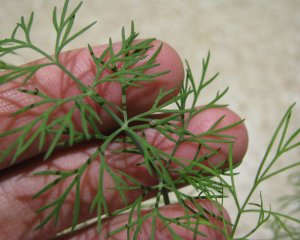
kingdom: Animalia
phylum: Arthropoda
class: Insecta
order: Lepidoptera
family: Papilionidae
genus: Papilio
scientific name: Papilio polyxenes
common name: Black Swallowtail
